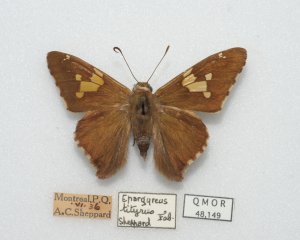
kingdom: Animalia
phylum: Arthropoda
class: Insecta
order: Lepidoptera
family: Hesperiidae
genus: Epargyreus
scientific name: Epargyreus clarus
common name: Silver-spotted Skipper
